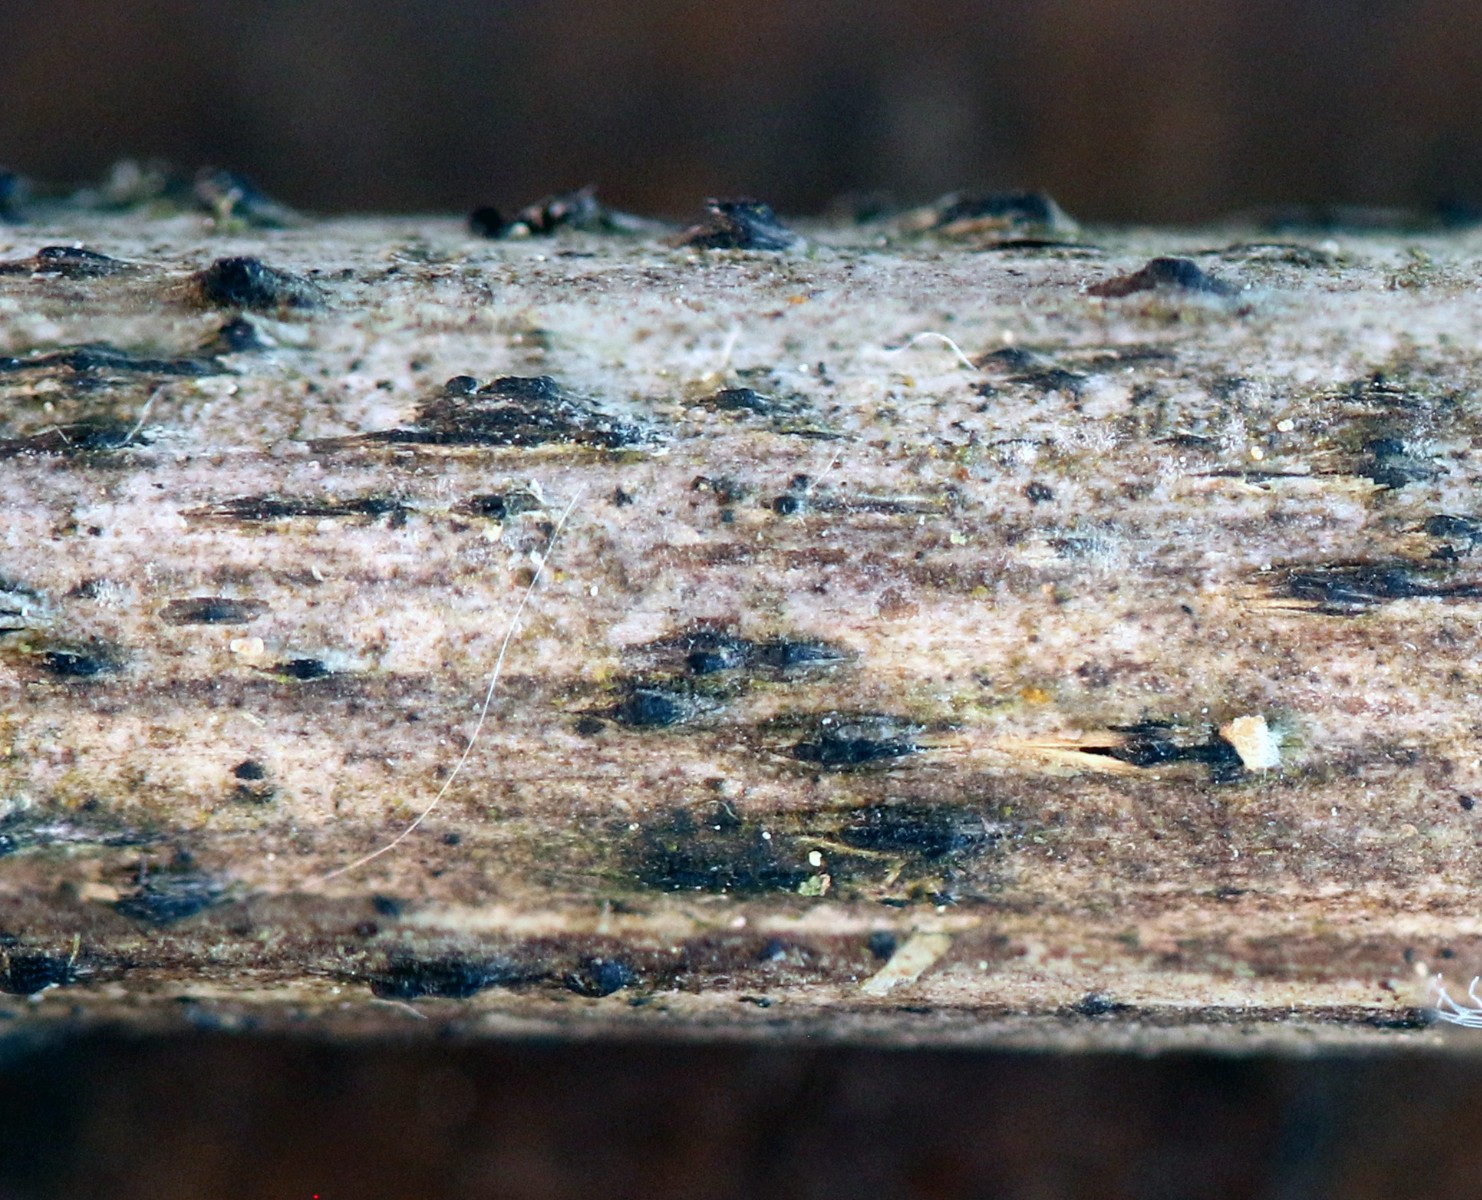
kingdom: Fungi
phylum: Ascomycota
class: Dothideomycetes
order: Pleosporales
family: Lophiostomataceae
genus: Sigarispora
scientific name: Sigarispora arundinis
